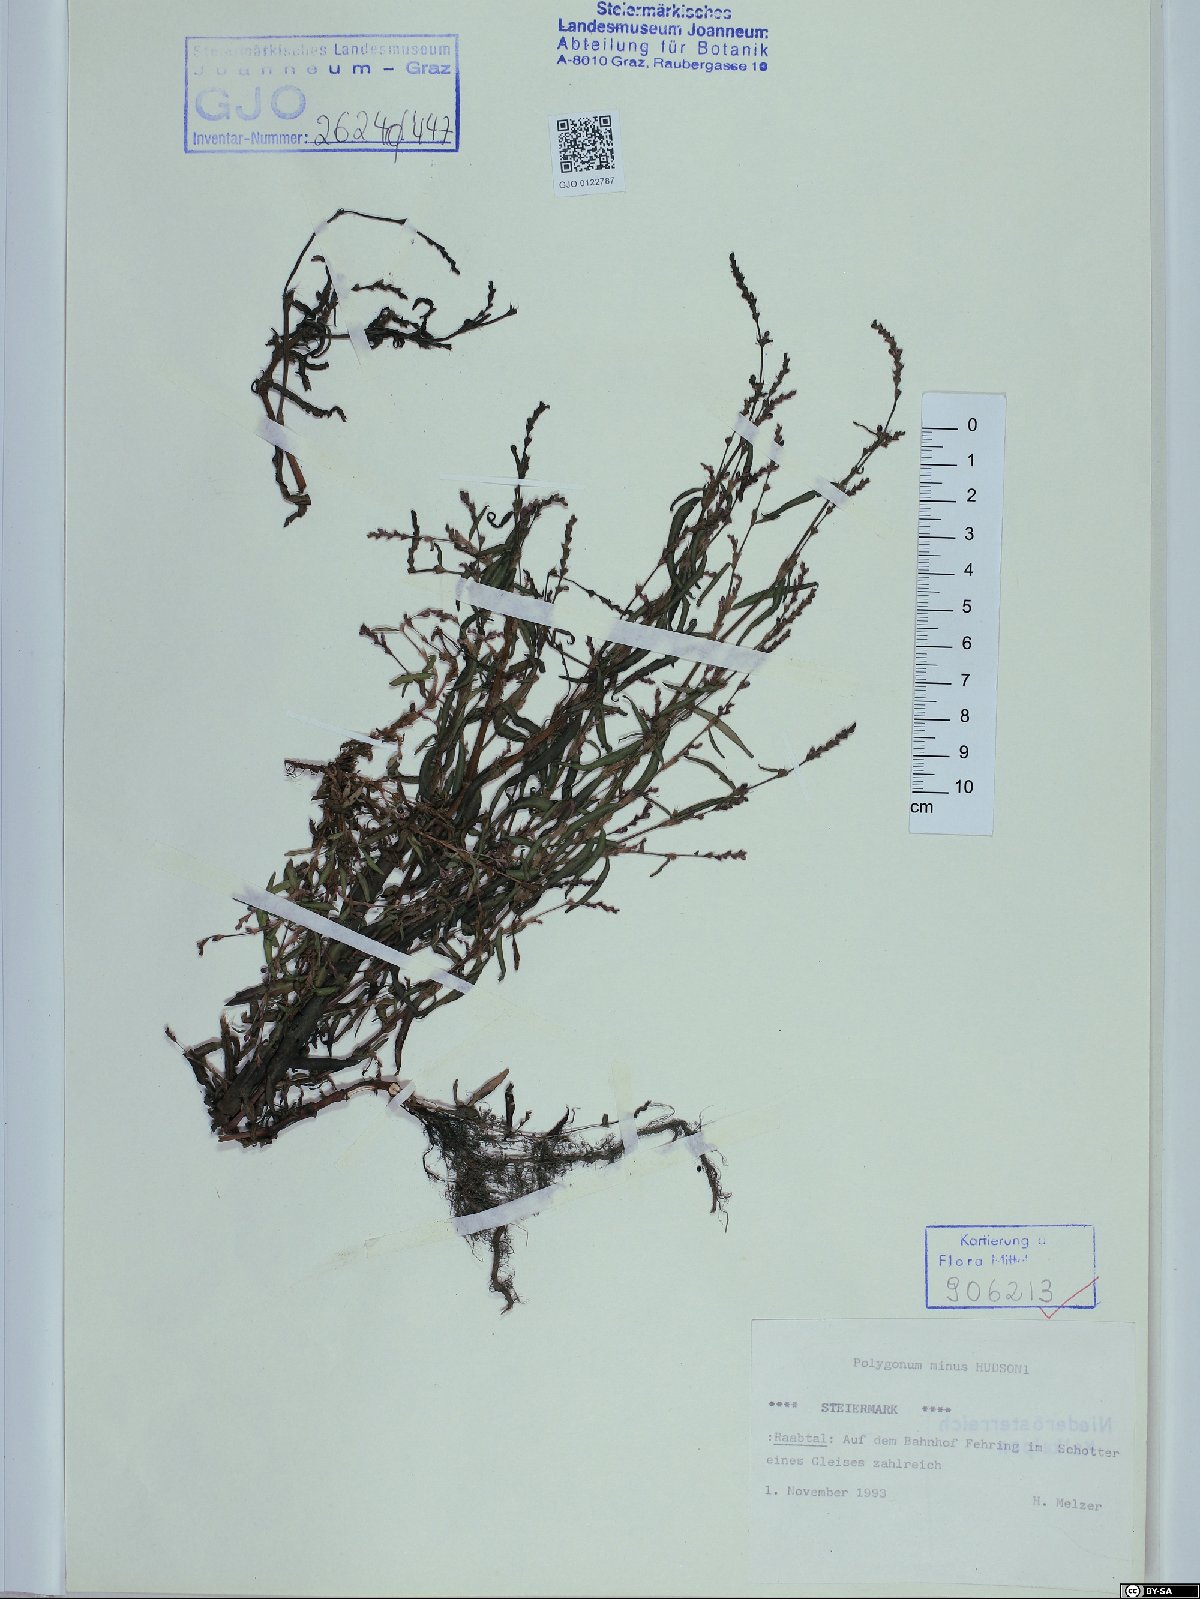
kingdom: Plantae
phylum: Tracheophyta
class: Magnoliopsida
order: Caryophyllales
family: Polygonaceae
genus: Persicaria
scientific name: Persicaria minor
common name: Small water-pepper
